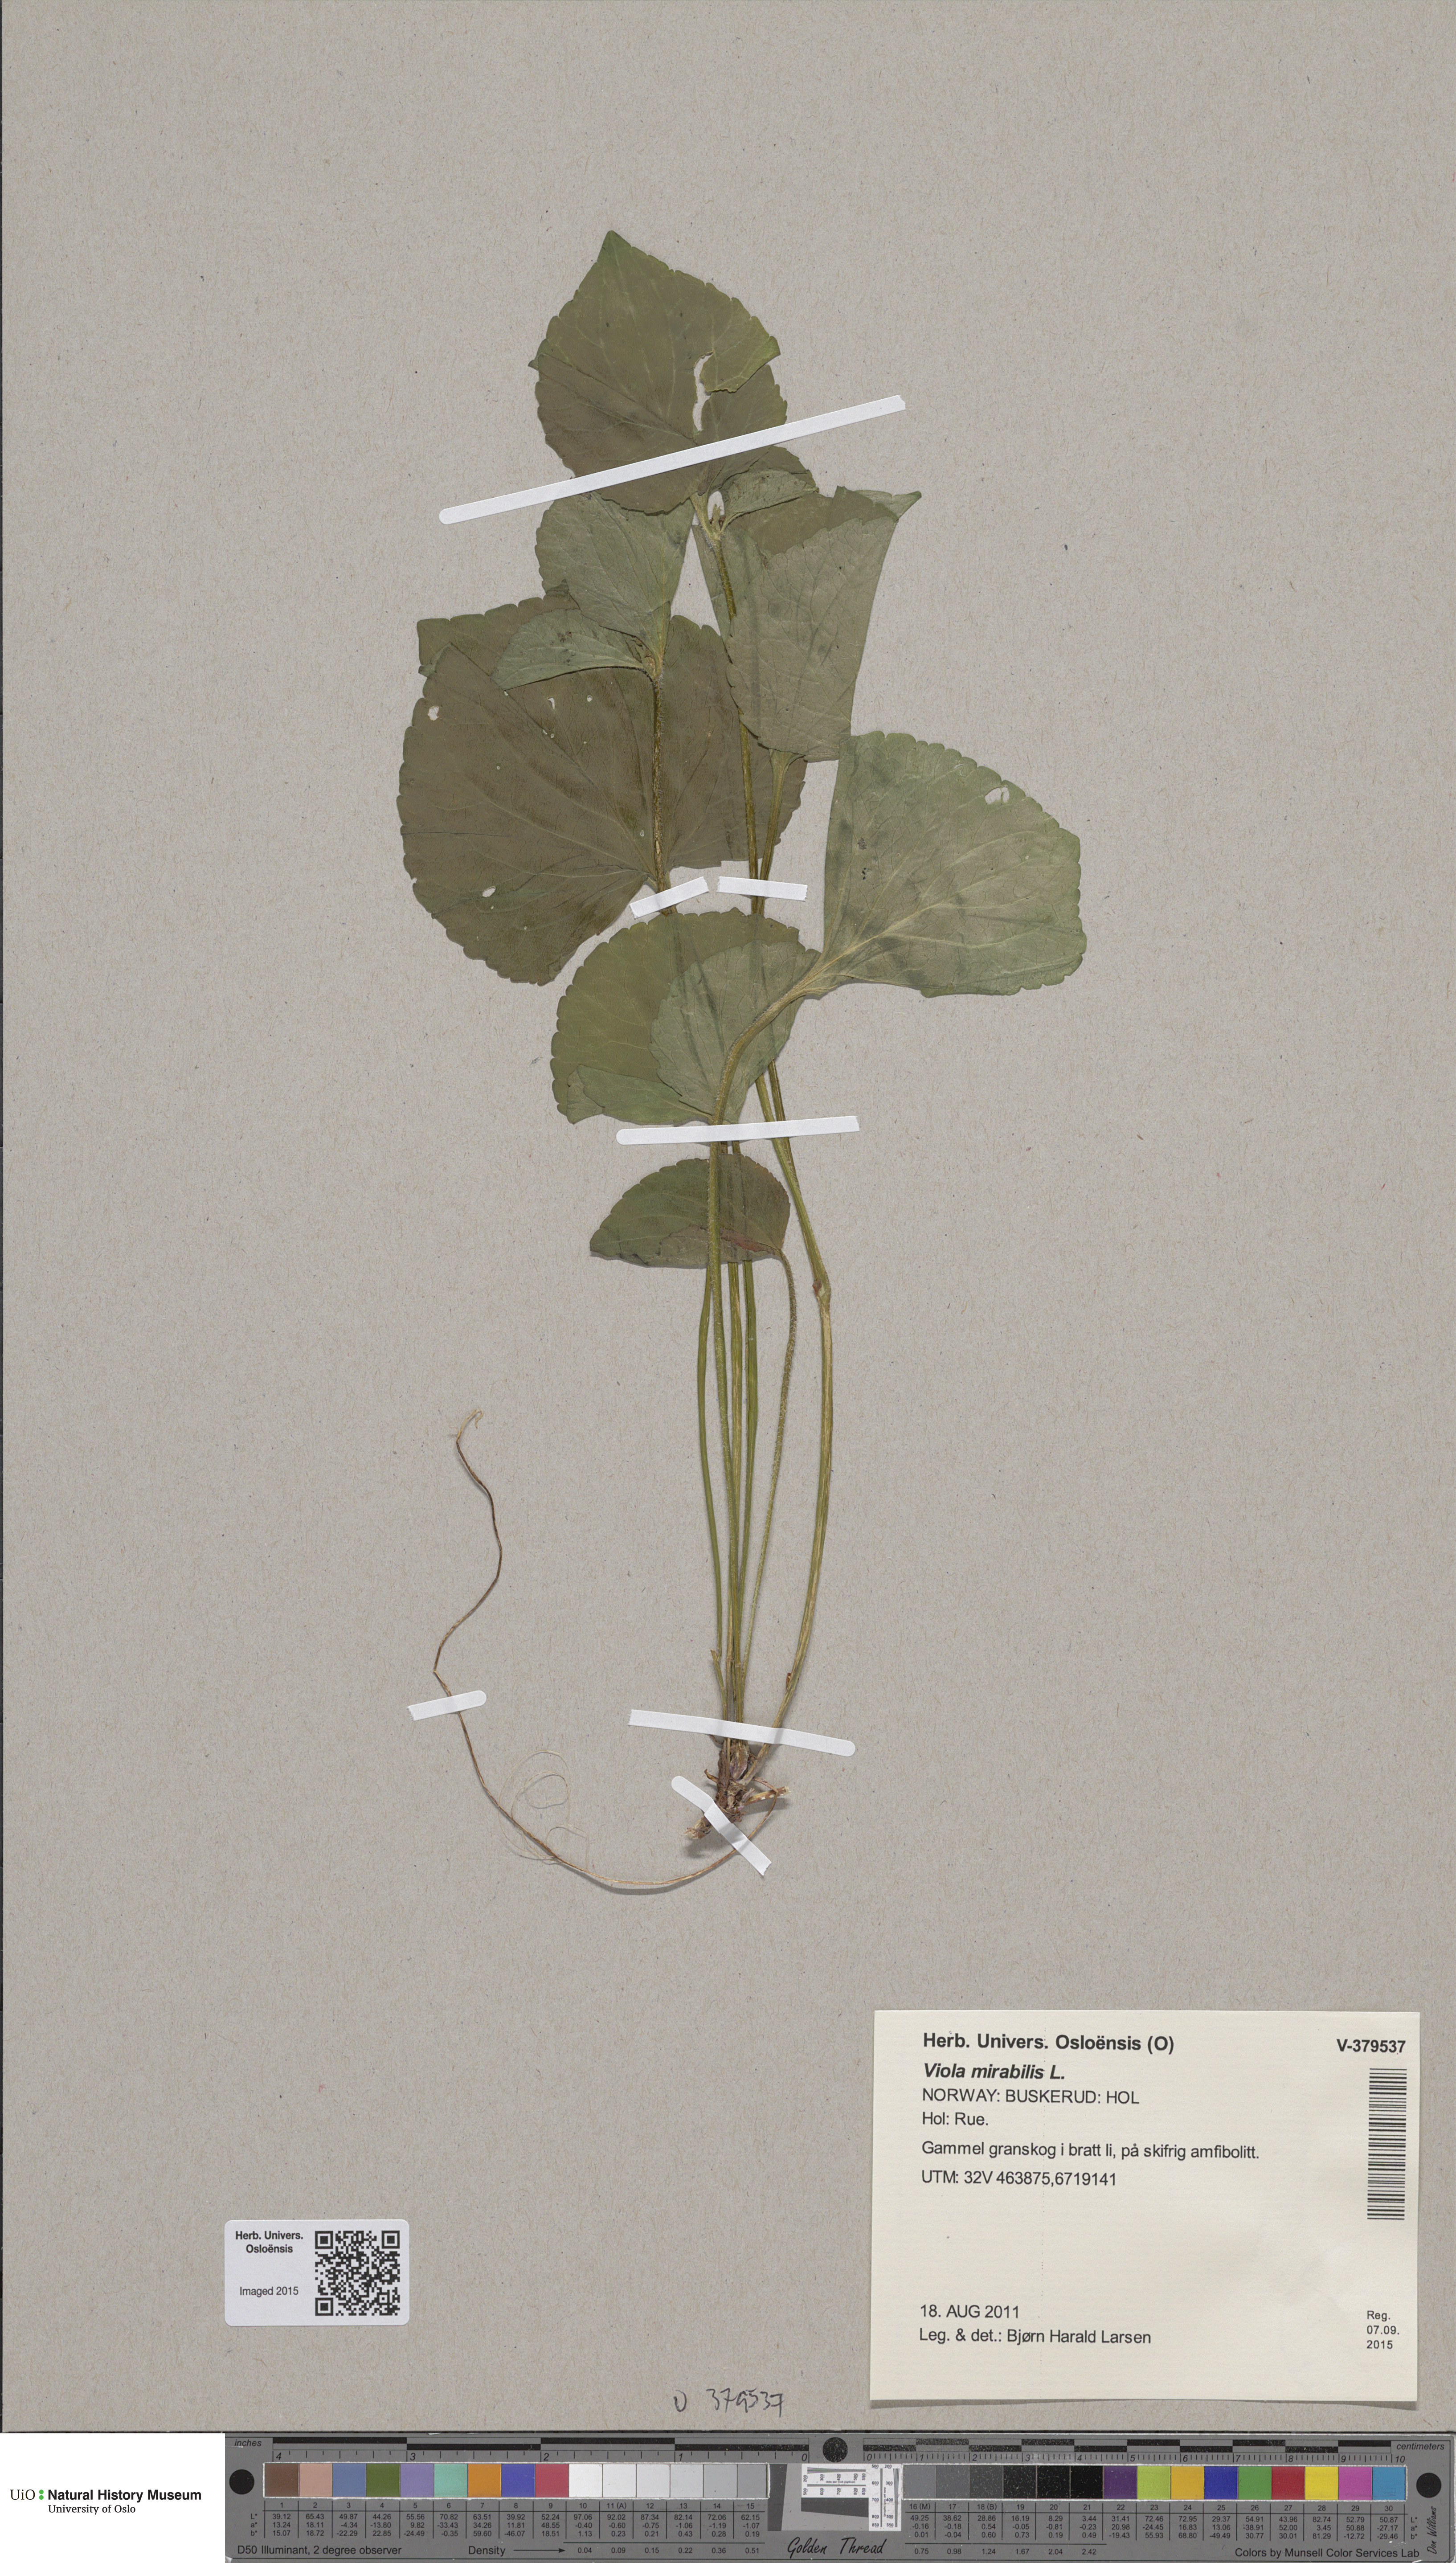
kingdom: Plantae
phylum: Tracheophyta
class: Magnoliopsida
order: Malpighiales
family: Violaceae
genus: Viola
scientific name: Viola mirabilis
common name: Wonder violet
